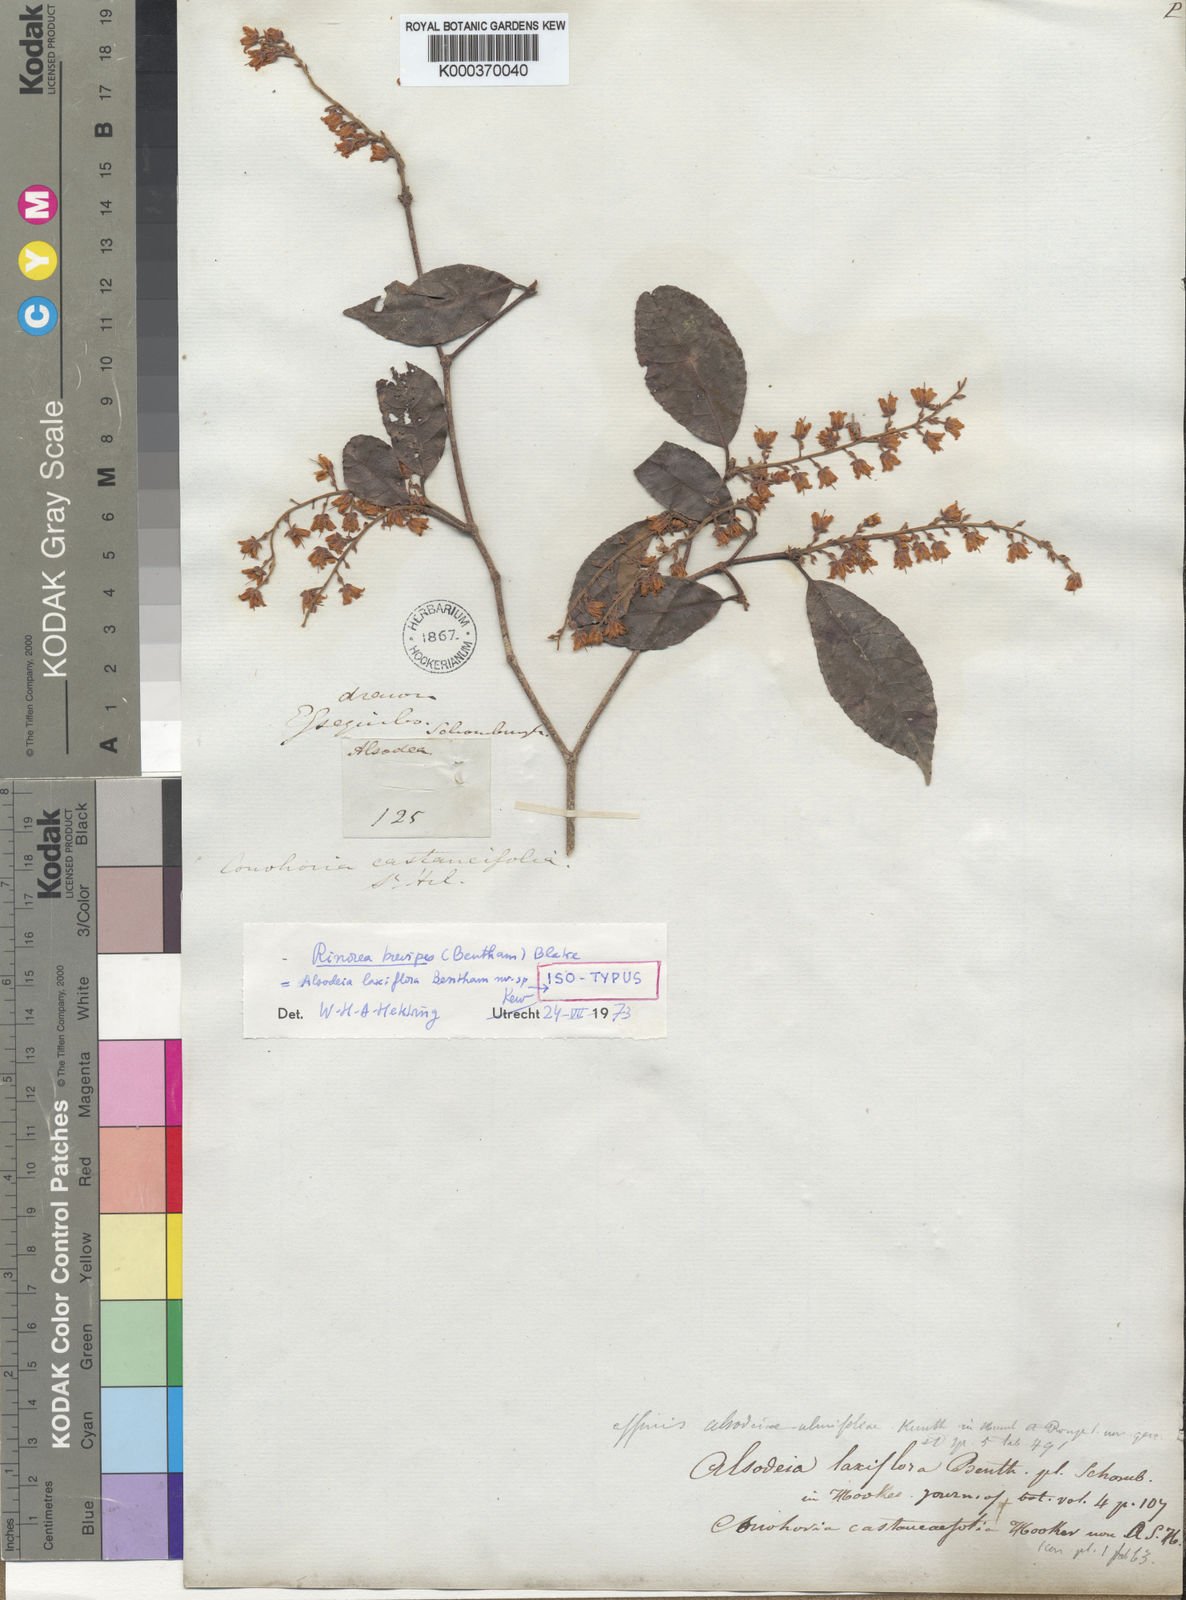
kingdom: Plantae
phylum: Tracheophyta
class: Magnoliopsida
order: Malpighiales
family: Violaceae
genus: Rinorea
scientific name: Rinorea brevipes
